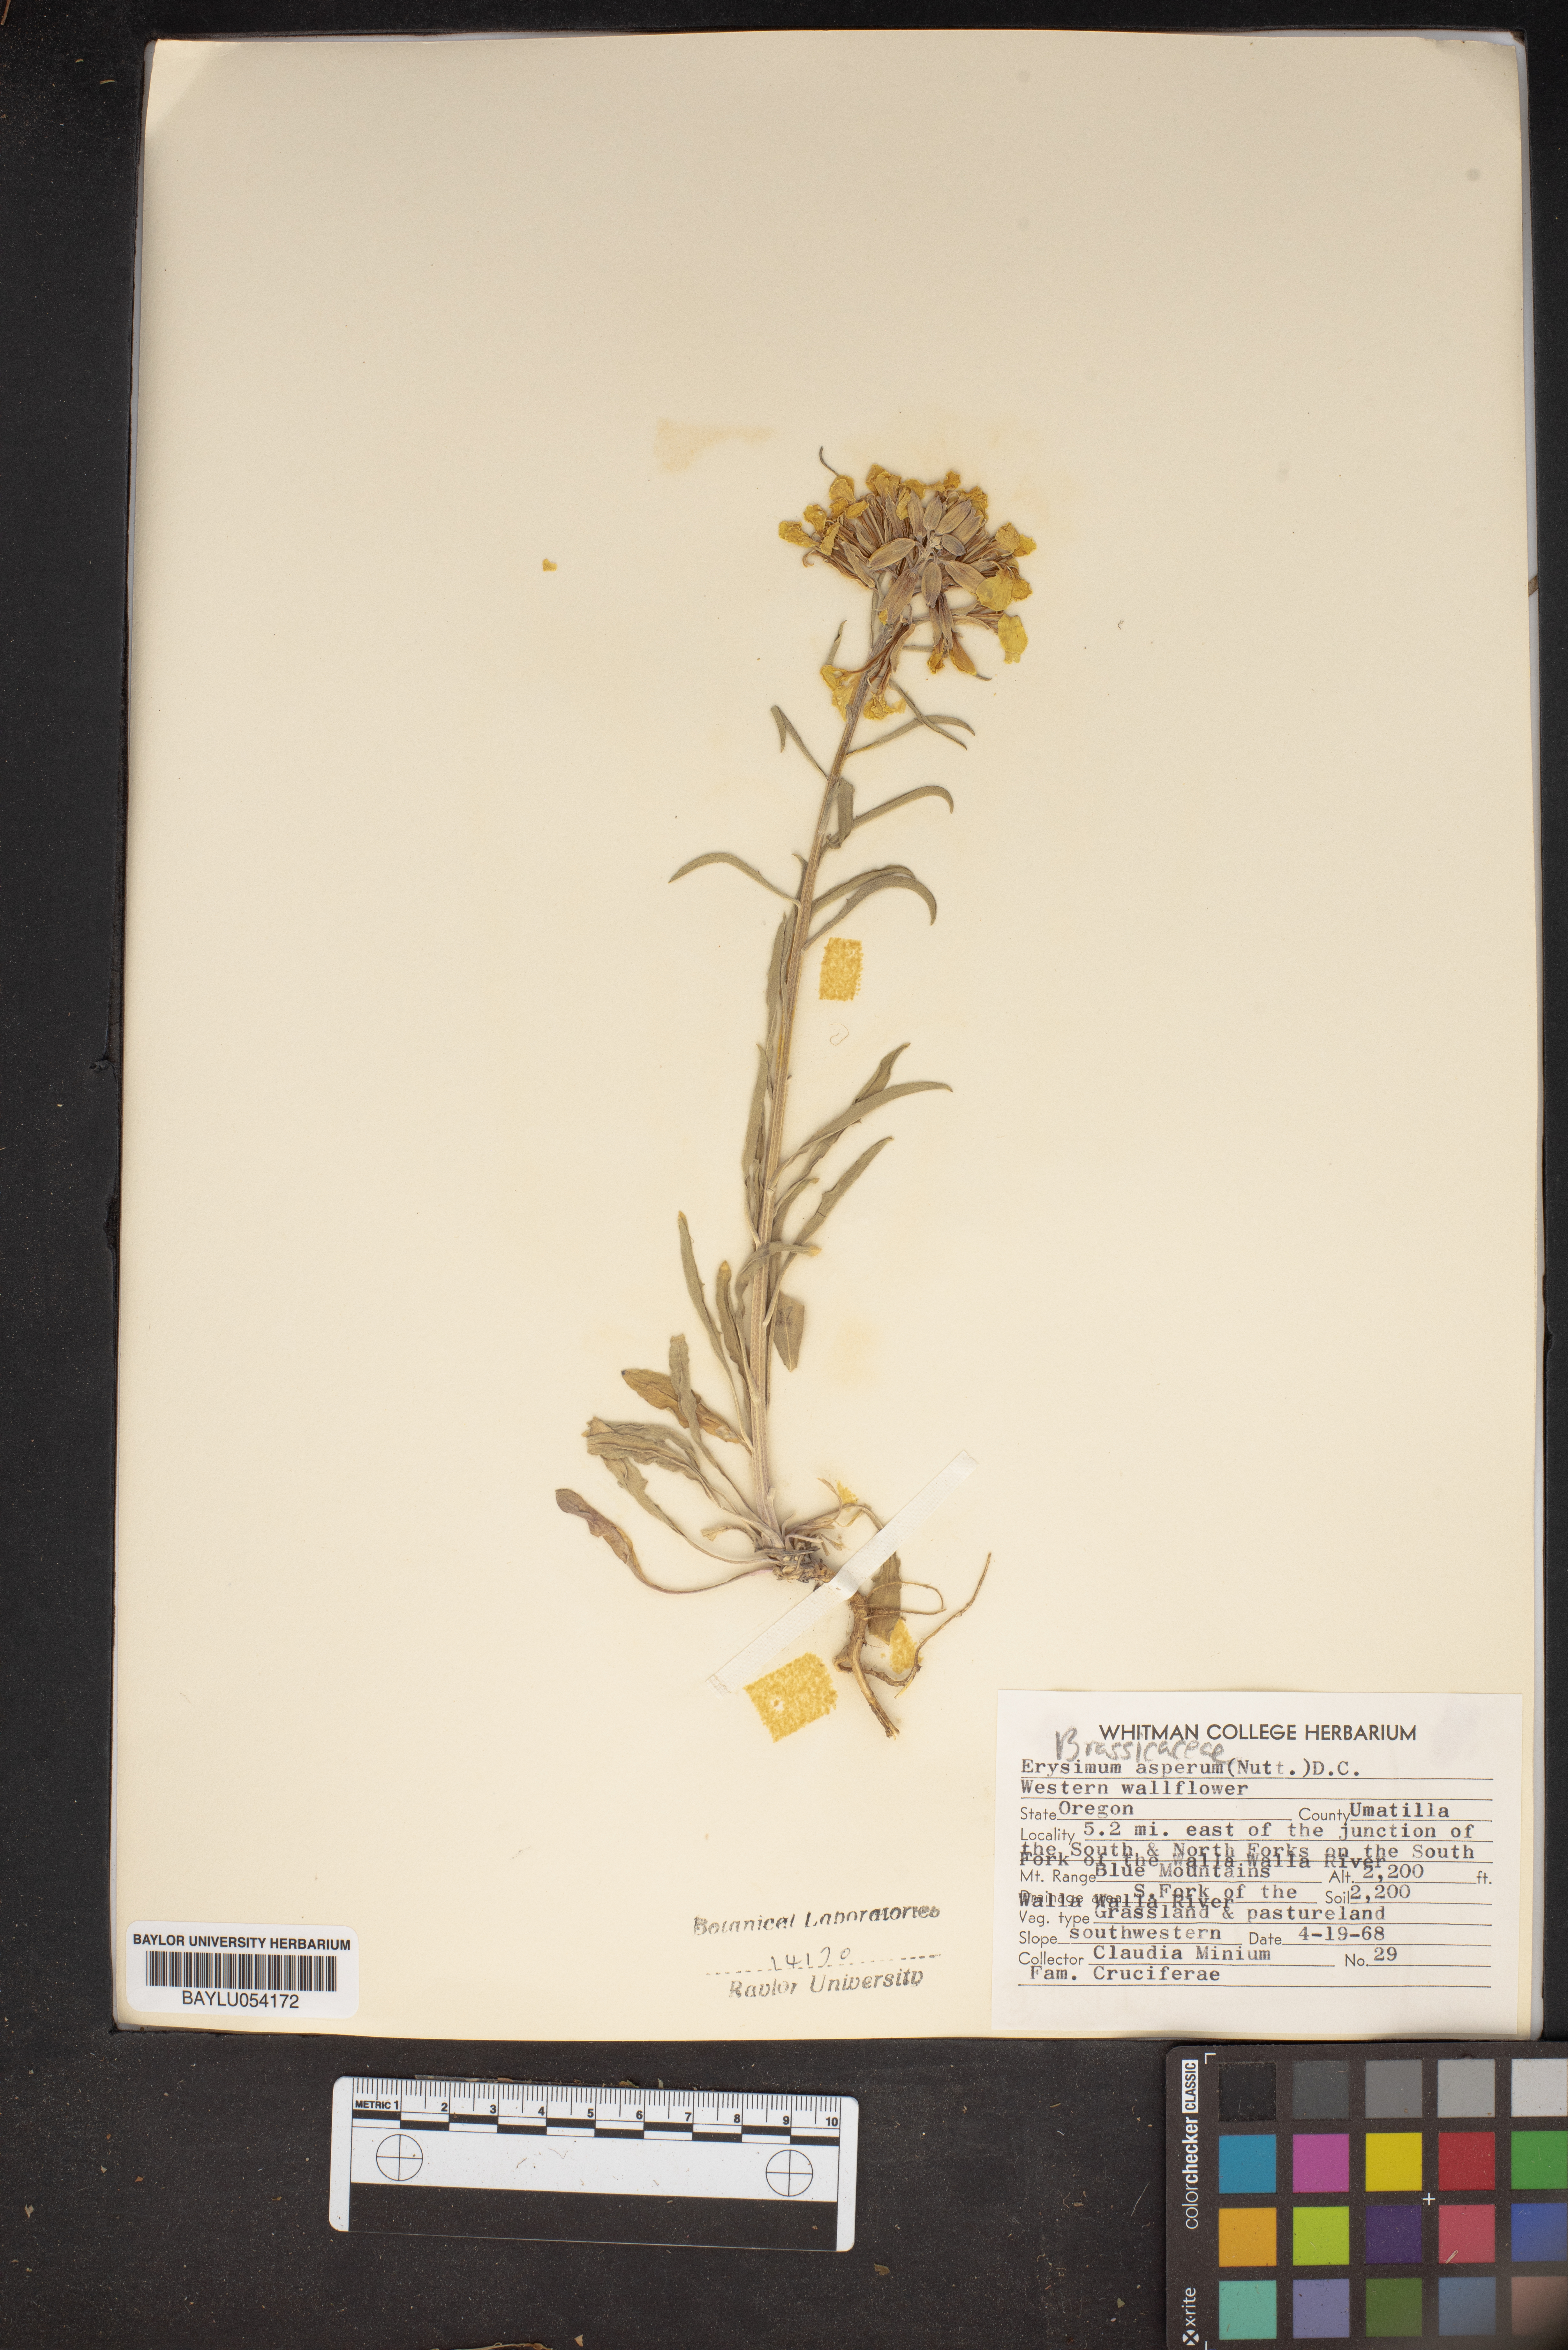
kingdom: Plantae
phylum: Tracheophyta
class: Magnoliopsida
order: Brassicales
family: Brassicaceae
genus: Erysimum
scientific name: Erysimum asperum
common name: Western wallflower
